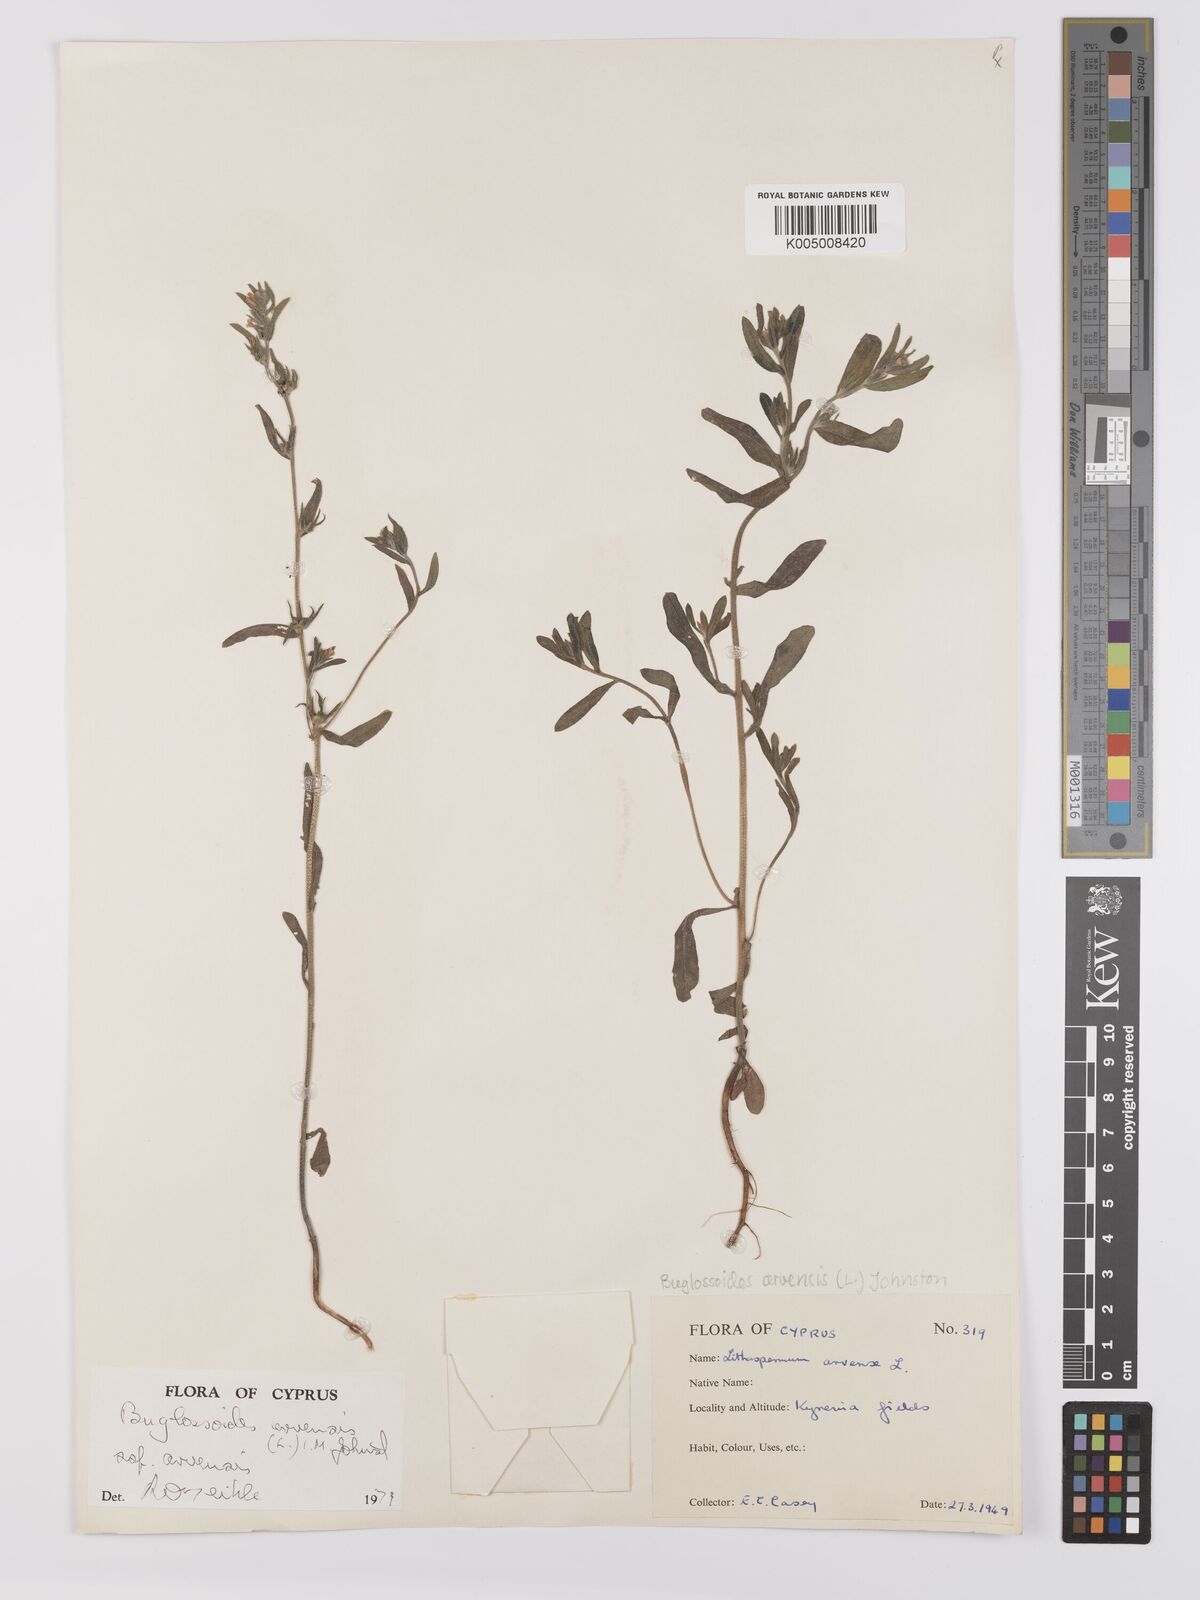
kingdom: Plantae
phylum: Tracheophyta
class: Magnoliopsida
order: Boraginales
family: Boraginaceae
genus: Buglossoides
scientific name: Buglossoides arvensis
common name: Corn gromwell
